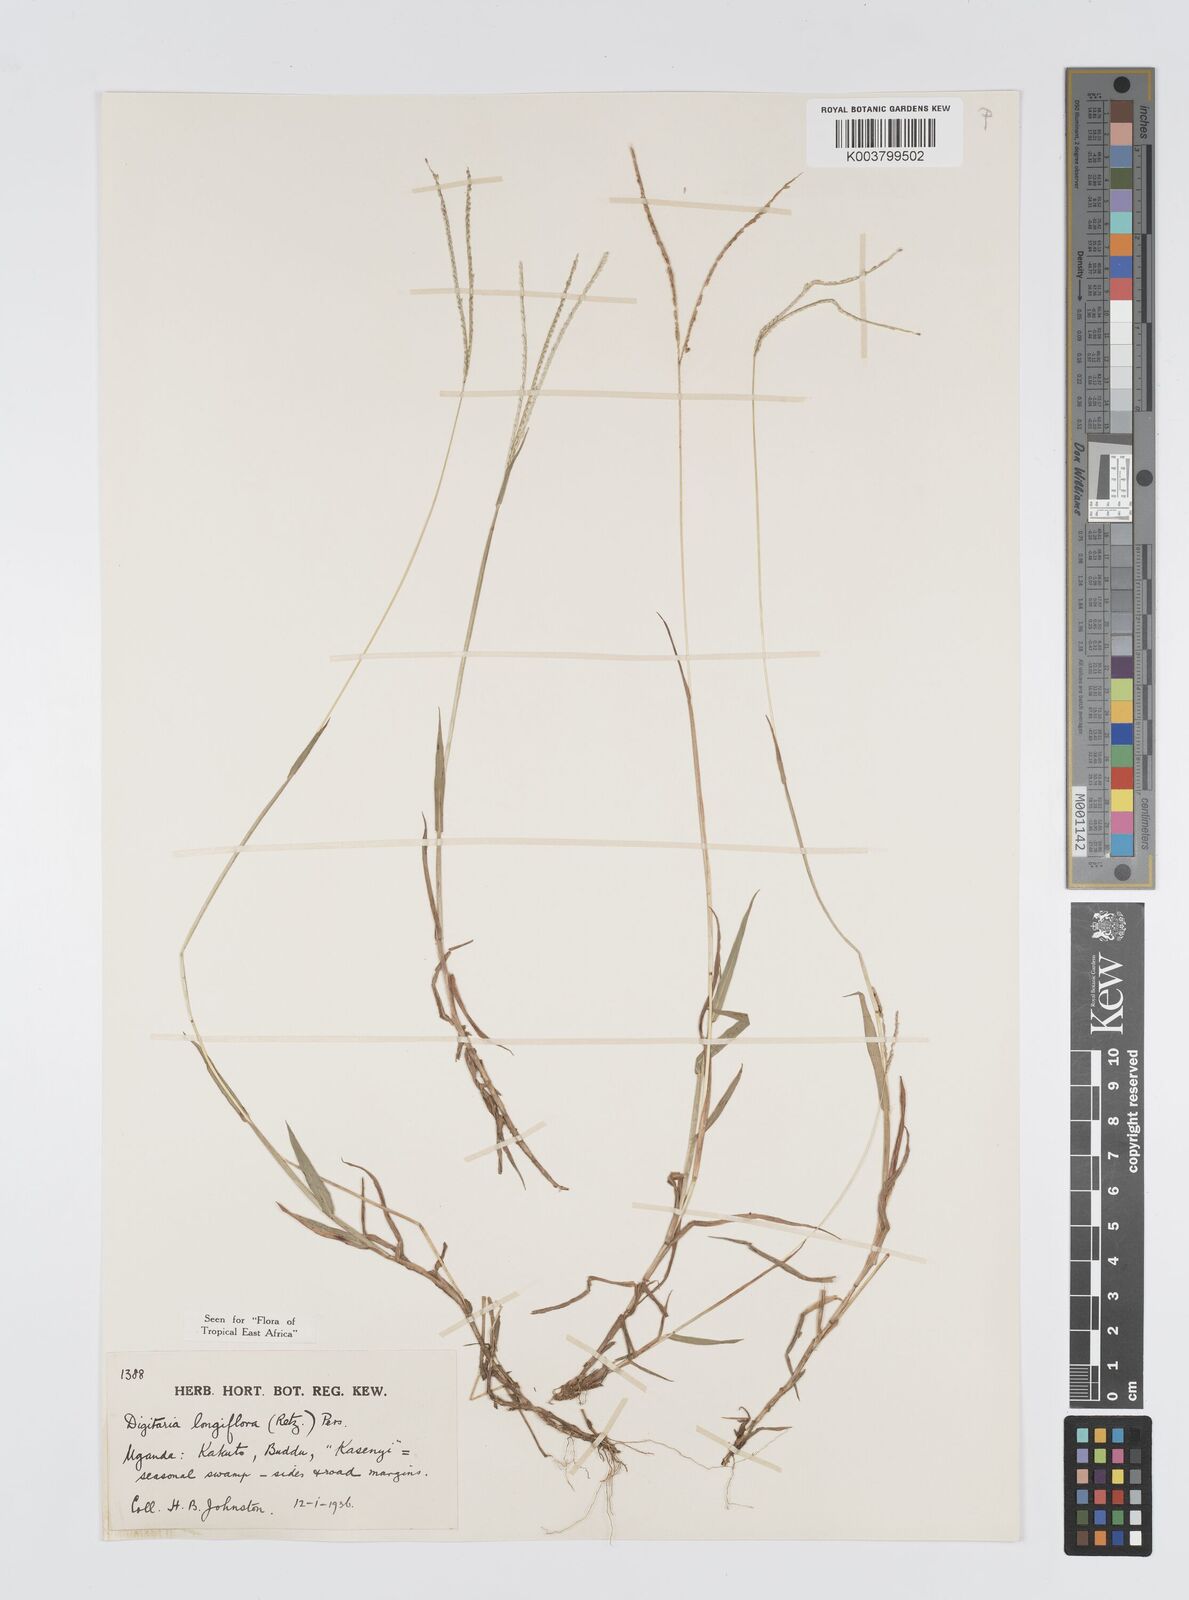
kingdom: Plantae
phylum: Tracheophyta
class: Liliopsida
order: Poales
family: Poaceae
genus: Digitaria
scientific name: Digitaria longiflora
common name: Wire crabgrass
